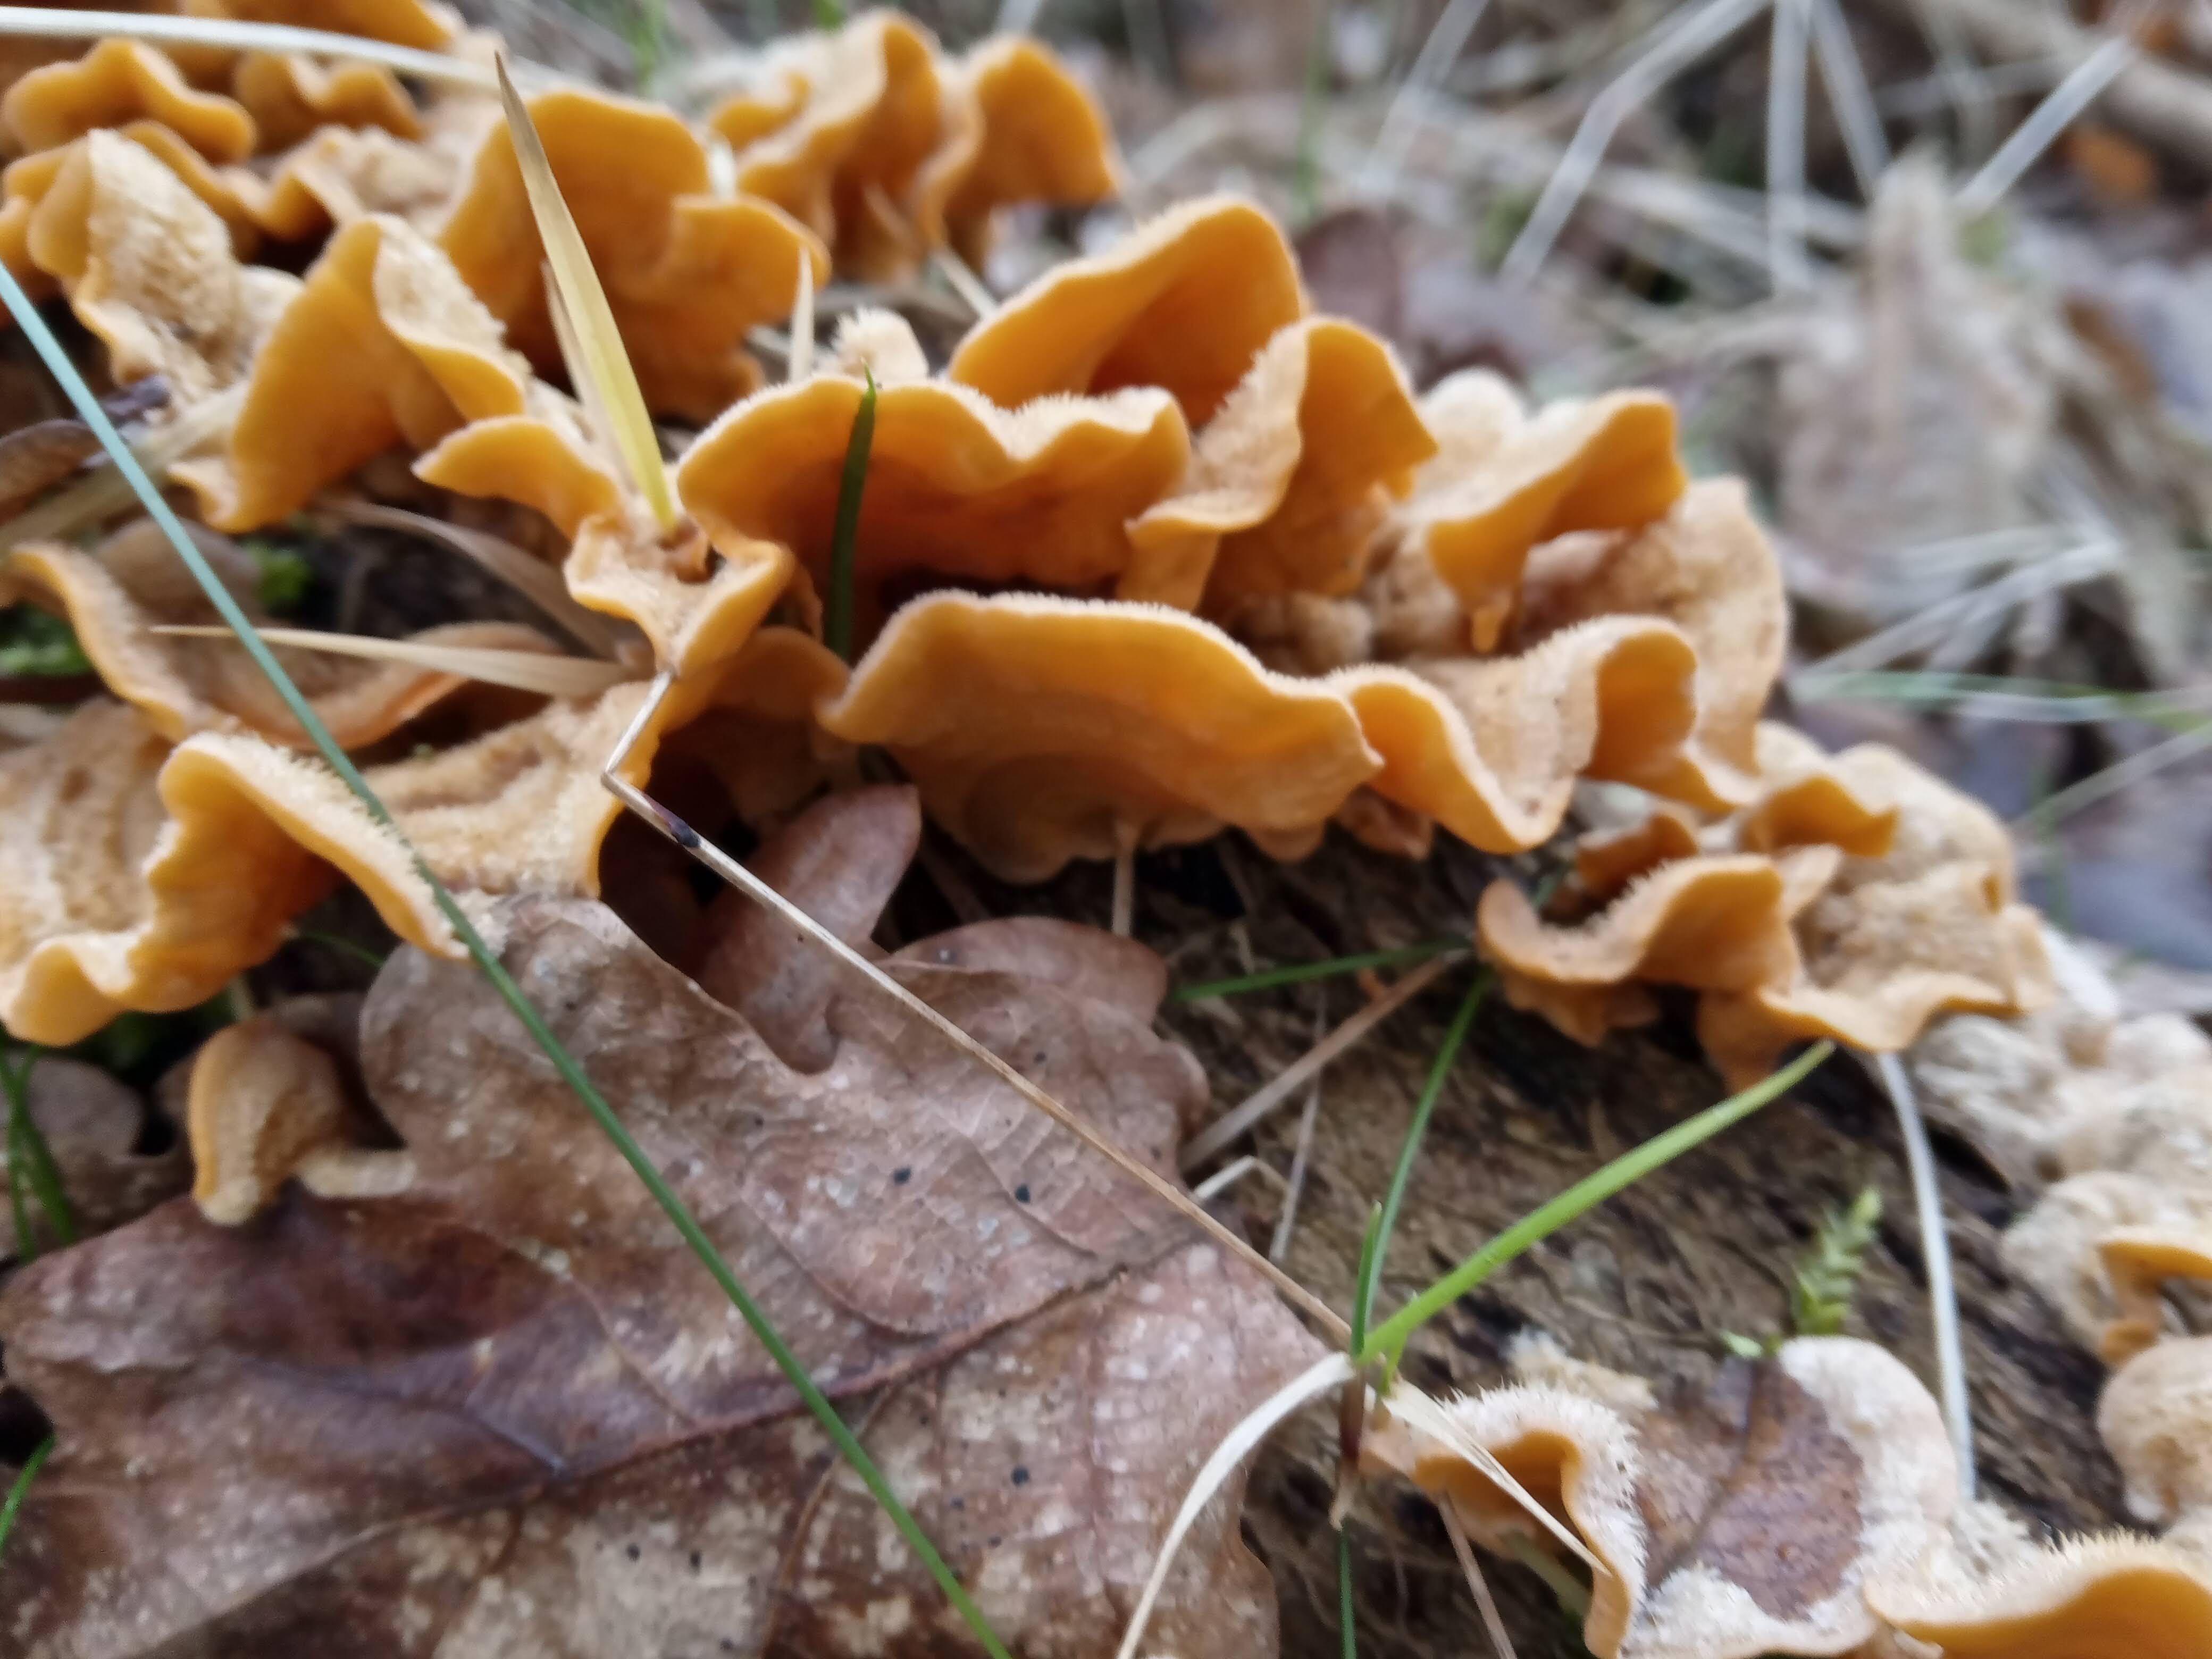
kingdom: Fungi
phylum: Basidiomycota
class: Agaricomycetes
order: Russulales
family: Stereaceae
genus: Stereum
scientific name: Stereum hirsutum
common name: håret lædersvamp
